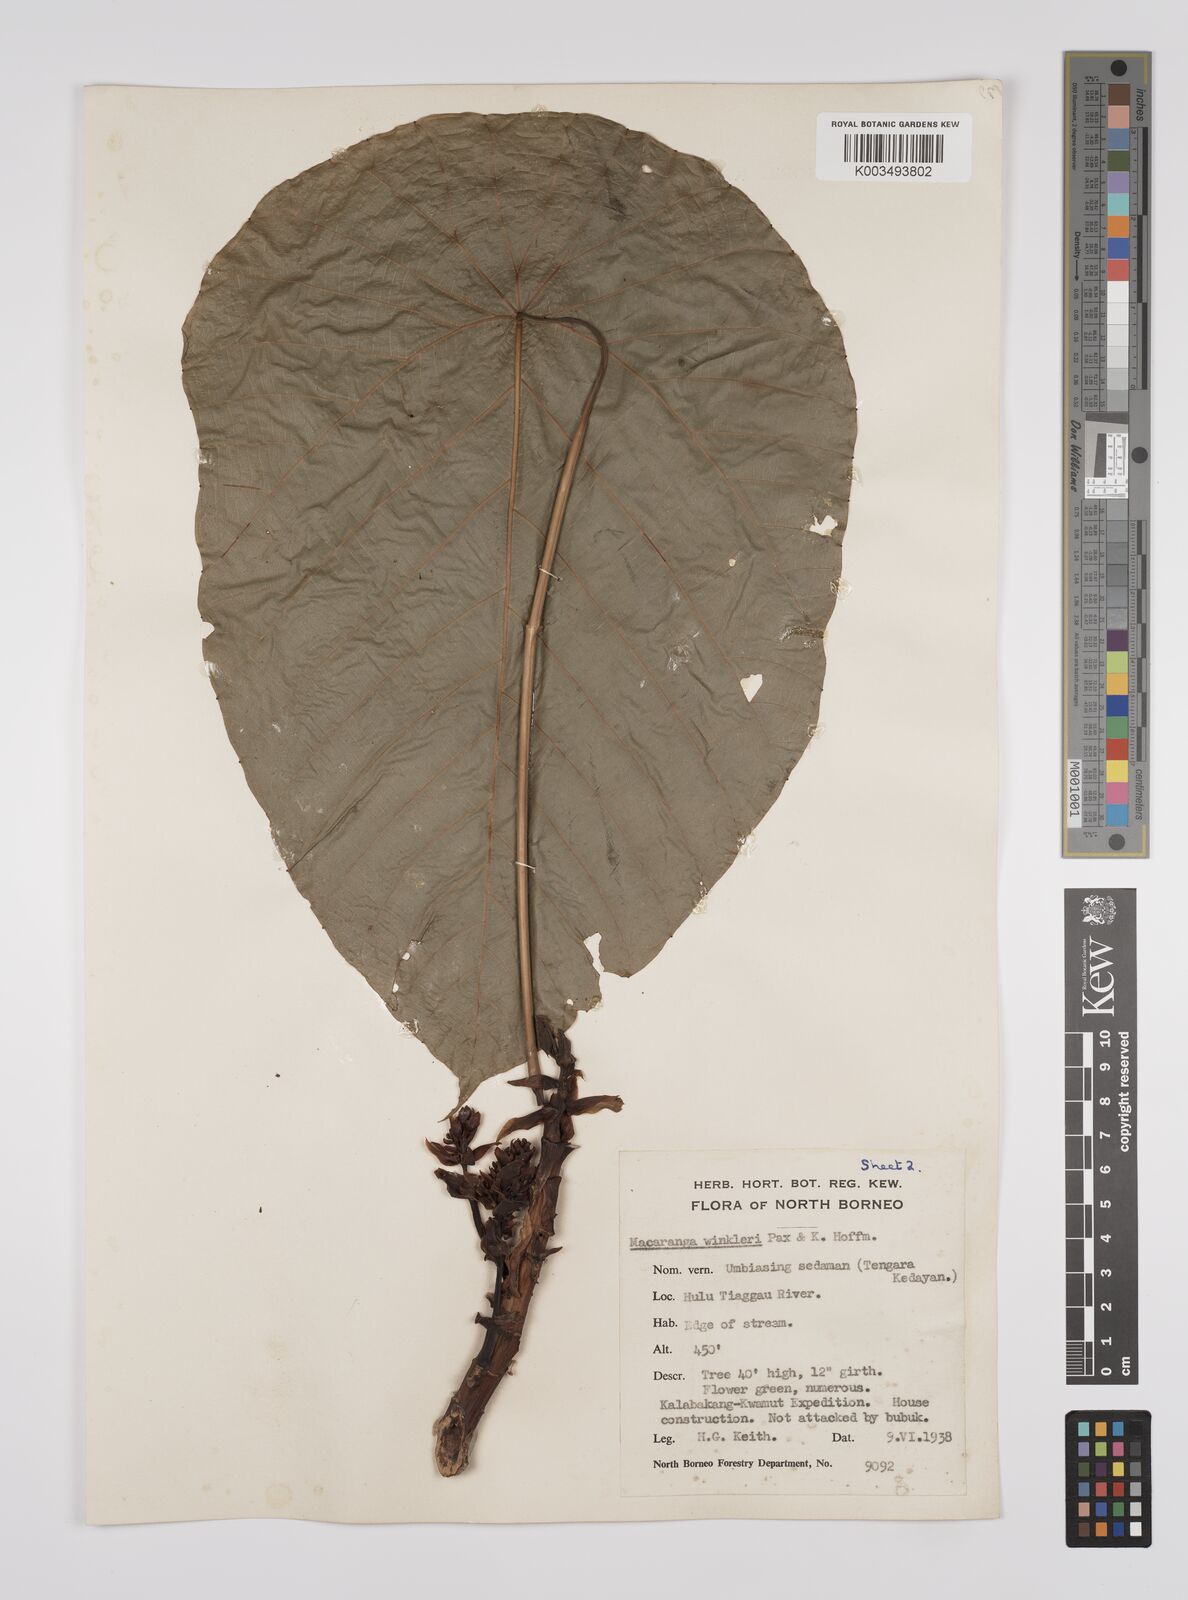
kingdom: Plantae
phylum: Tracheophyta
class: Magnoliopsida
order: Malpighiales
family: Euphorbiaceae
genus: Macaranga
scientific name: Macaranga winkleri
